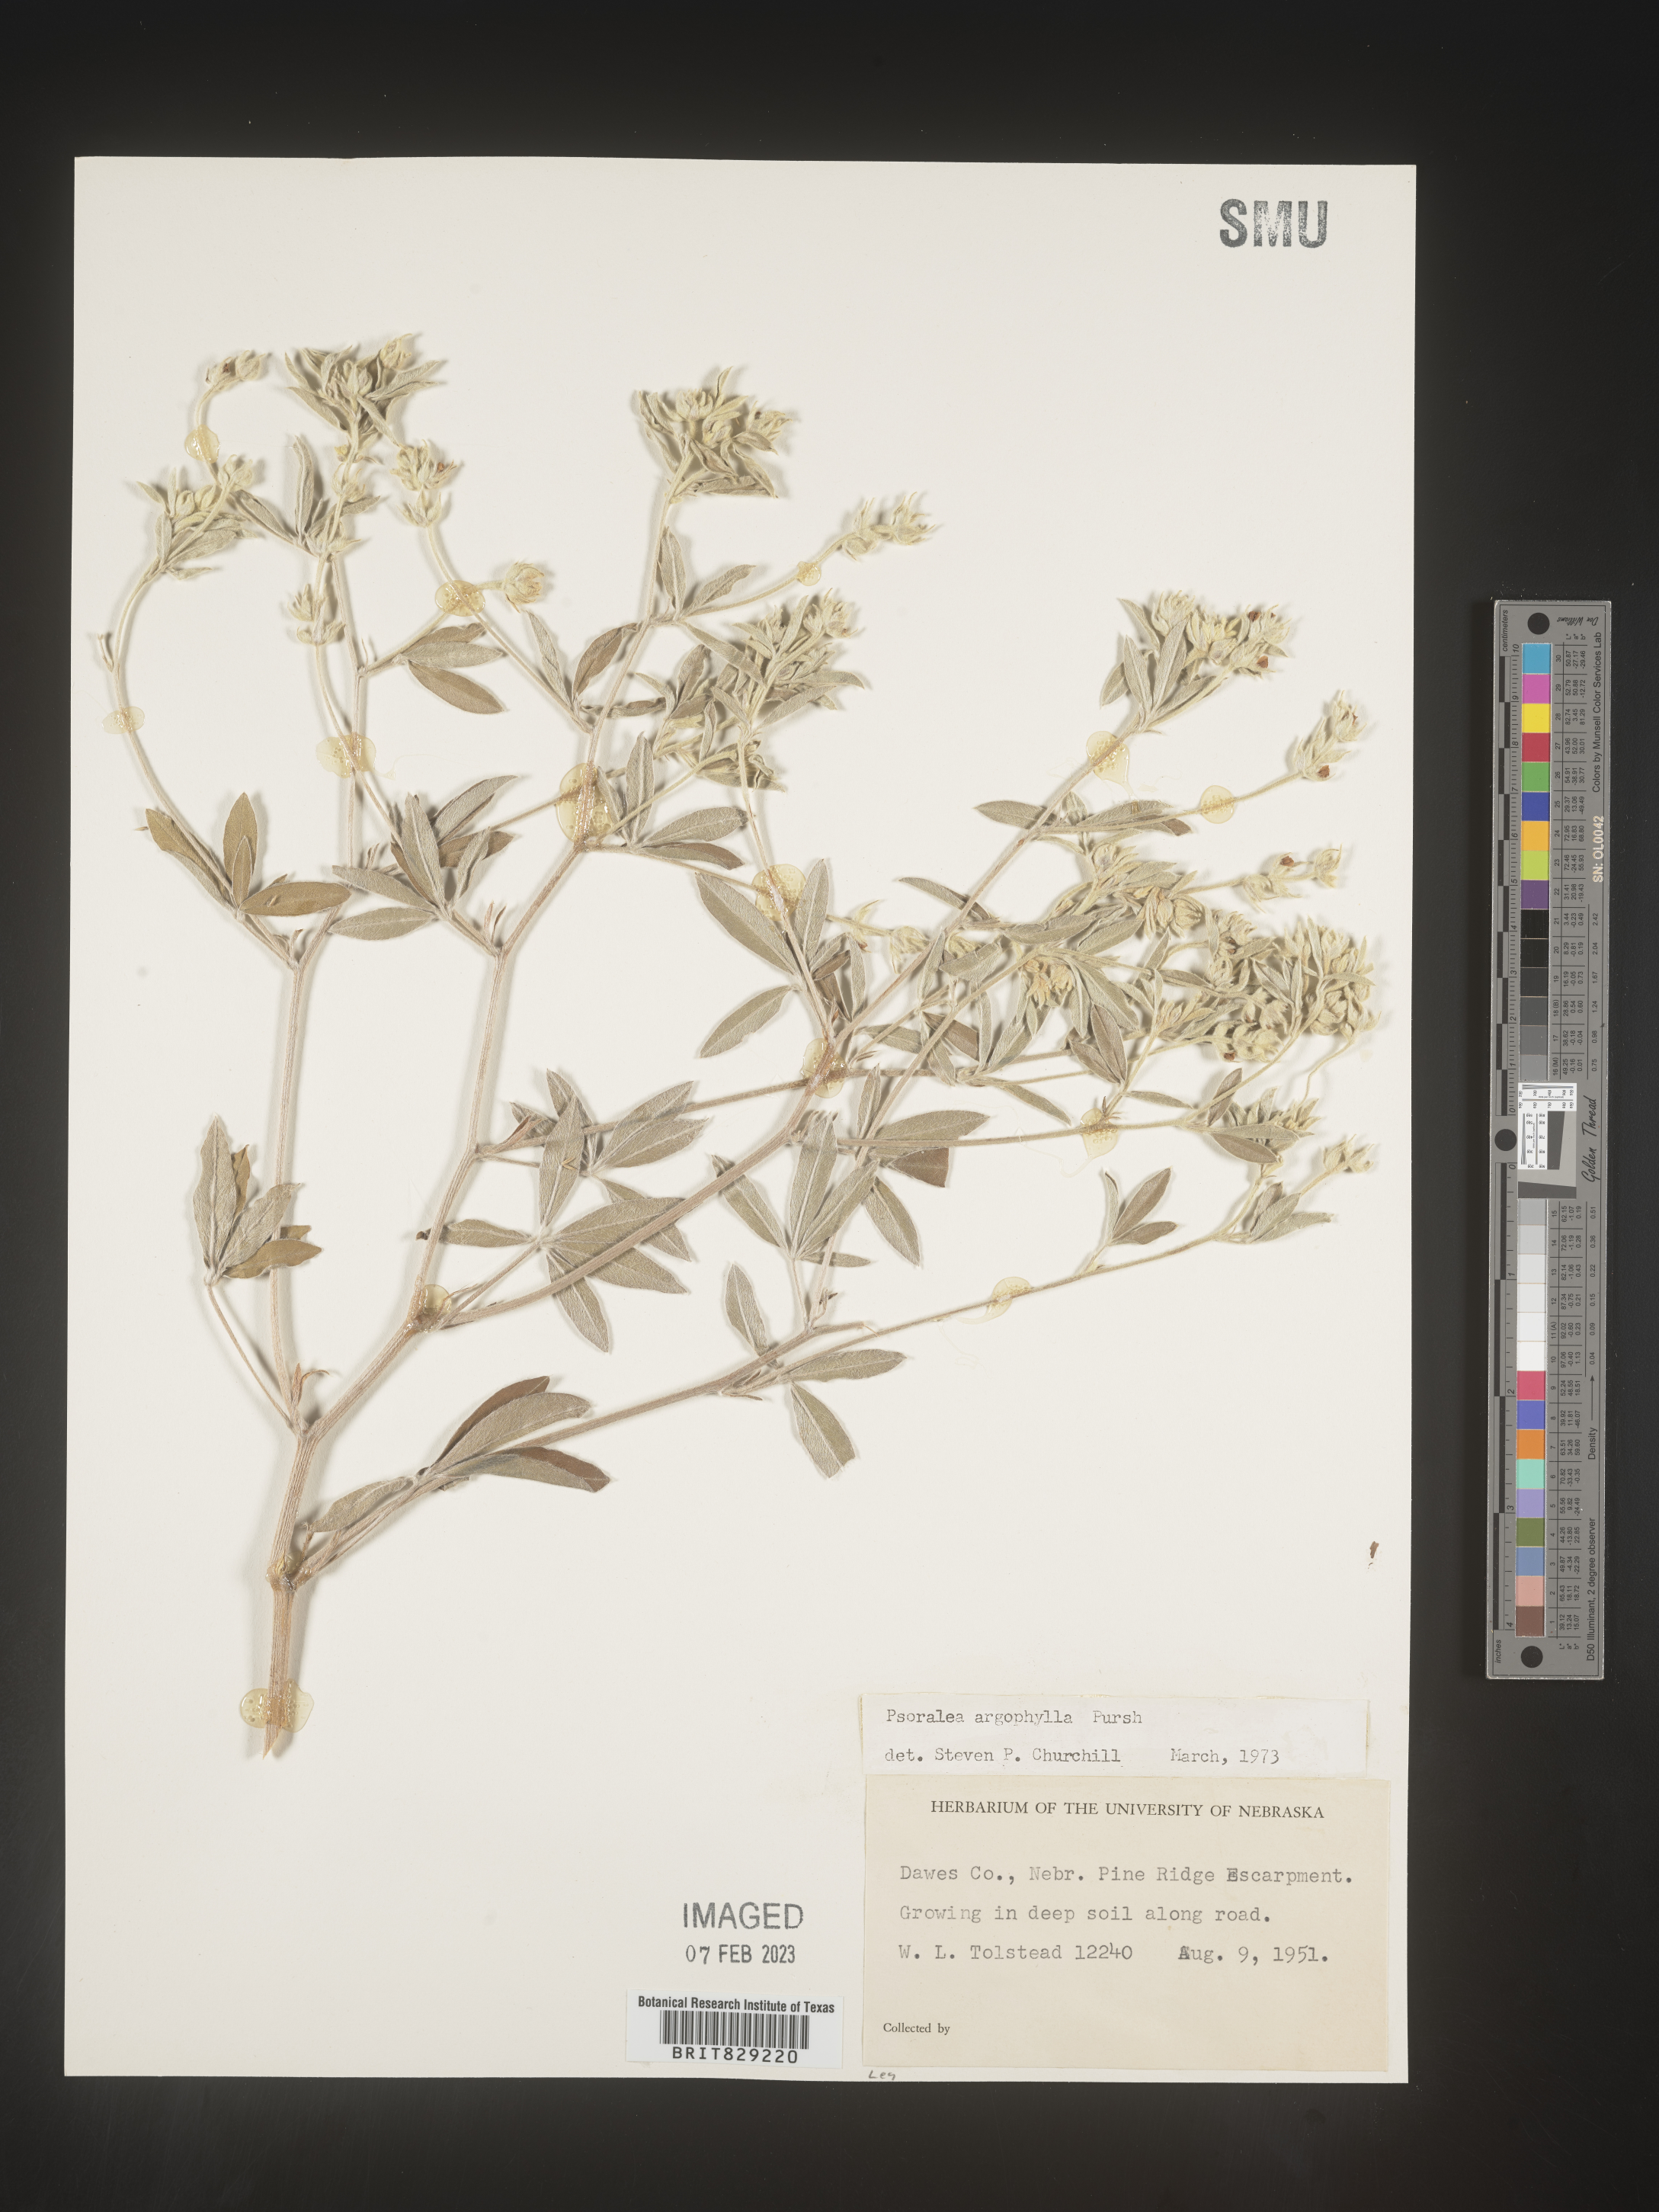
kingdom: Plantae
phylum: Tracheophyta
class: Magnoliopsida
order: Fabales
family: Fabaceae
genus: Pediomelum
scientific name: Pediomelum argophyllum
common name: Silver-leaved indian breadroot
